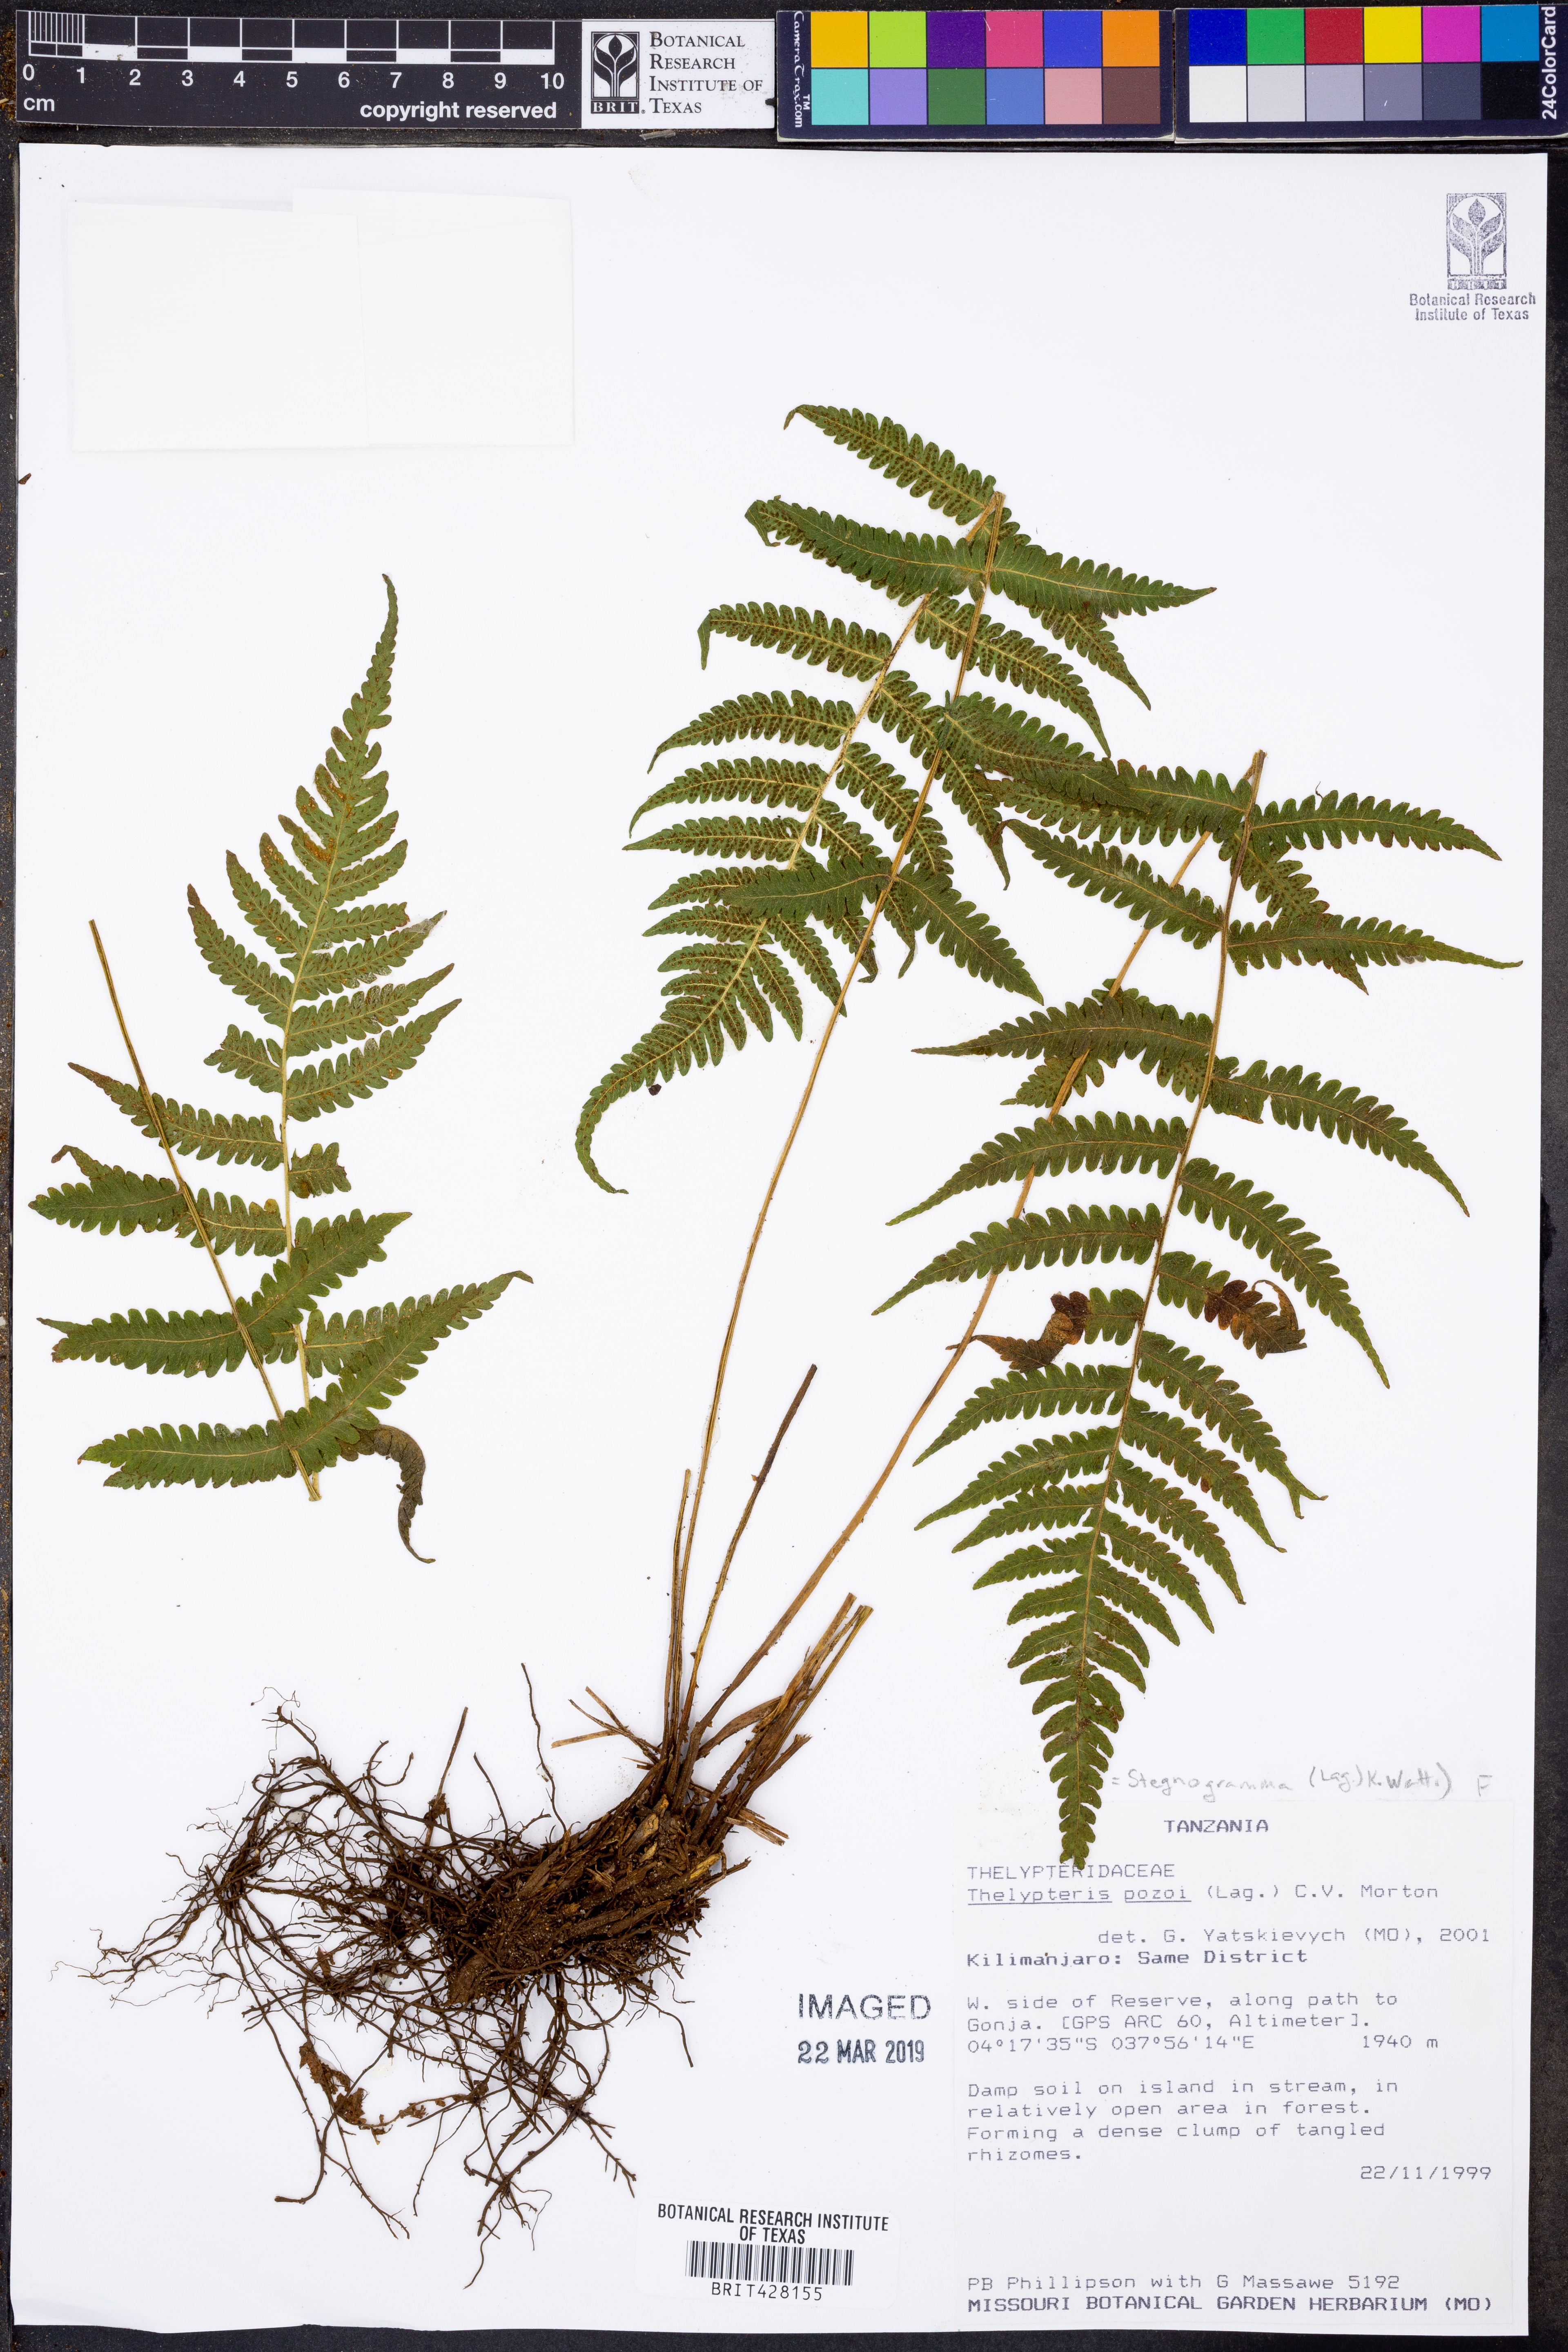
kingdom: Plantae
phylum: Tracheophyta
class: Polypodiopsida
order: Polypodiales
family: Thelypteridaceae
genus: Leptogramma
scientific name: Leptogramma pozoi
